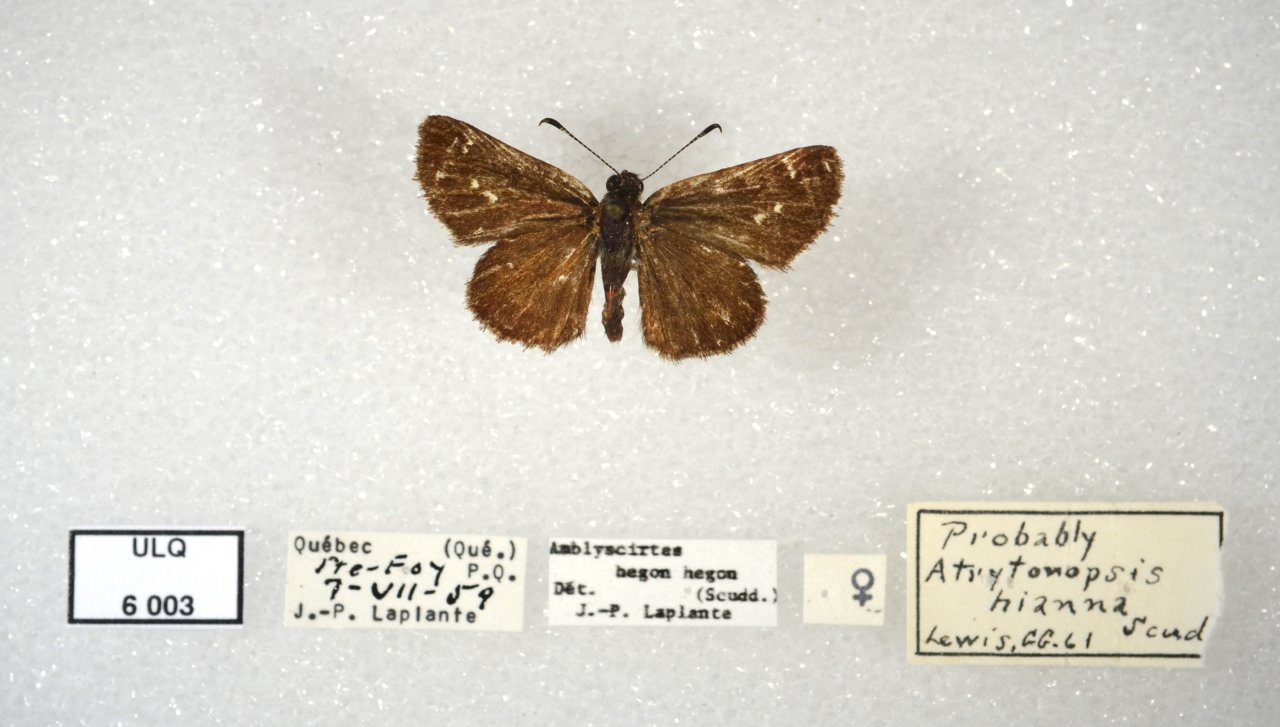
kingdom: Animalia
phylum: Arthropoda
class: Insecta
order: Lepidoptera
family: Hesperiidae
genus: Mastor
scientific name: Mastor vialis
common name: Common Roadside-Skipper
